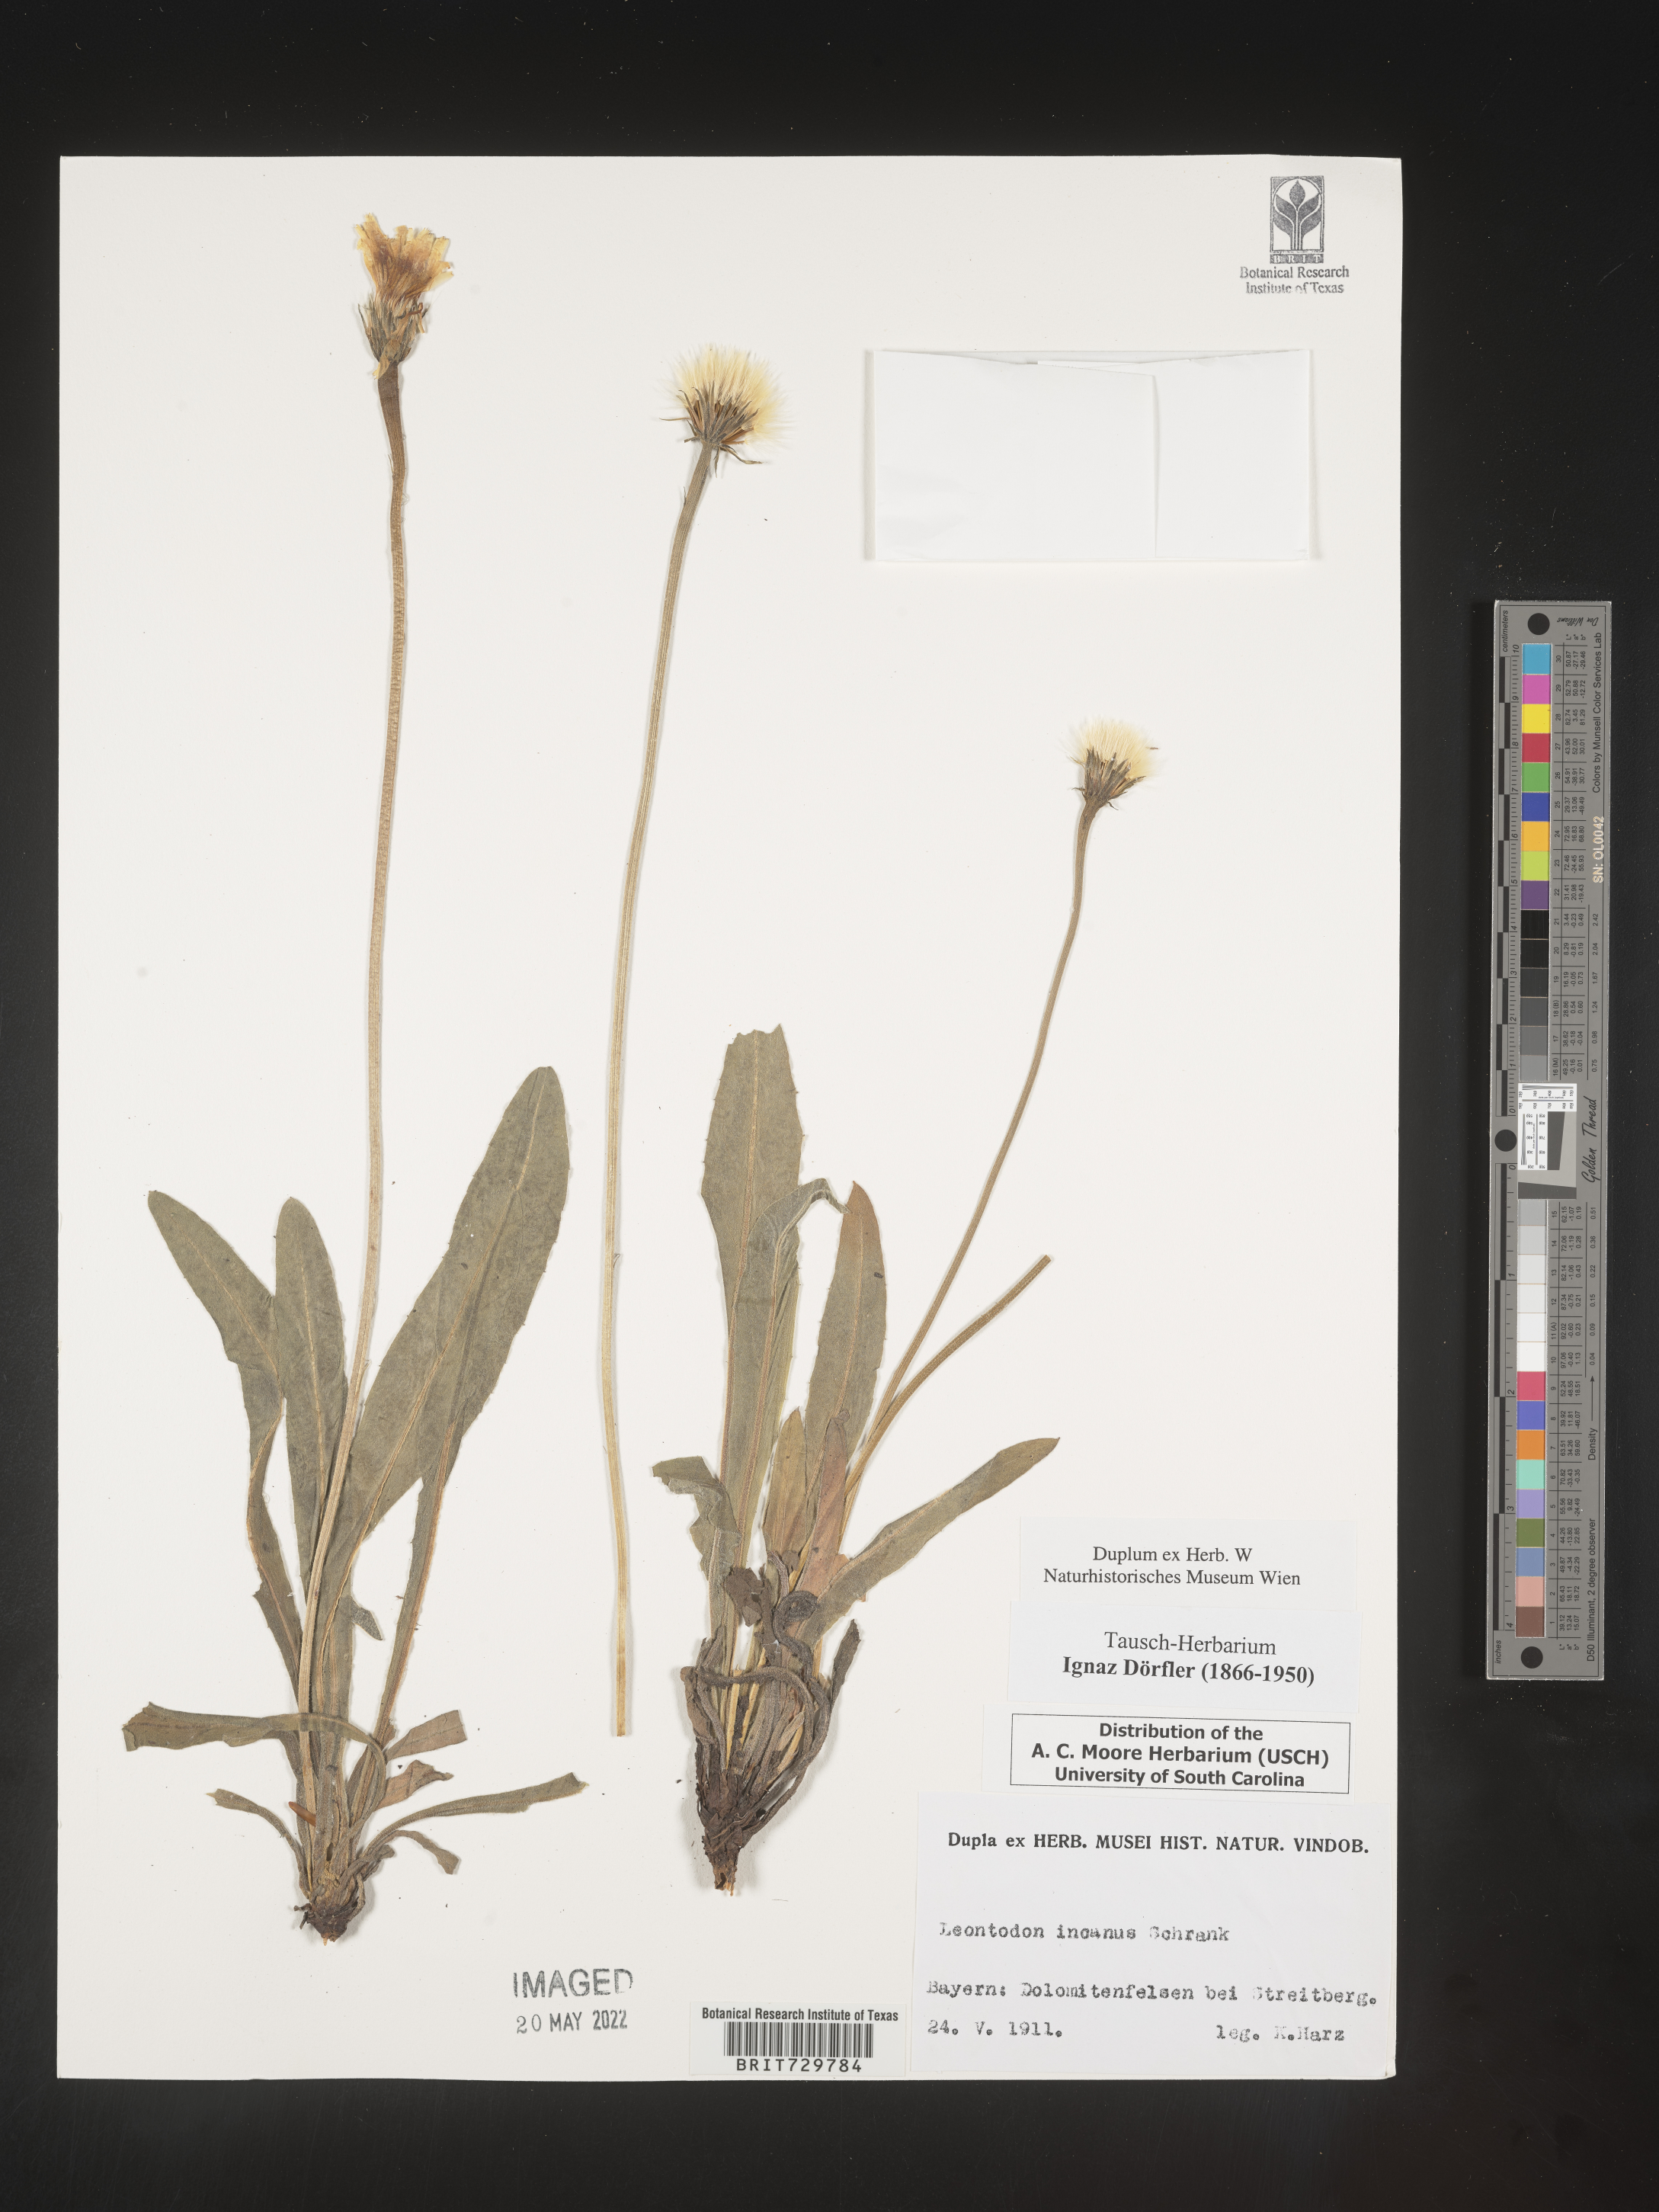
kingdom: Plantae
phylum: Tracheophyta
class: Magnoliopsida
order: Asterales
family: Asteraceae
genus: Leontodon
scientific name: Leontodon
